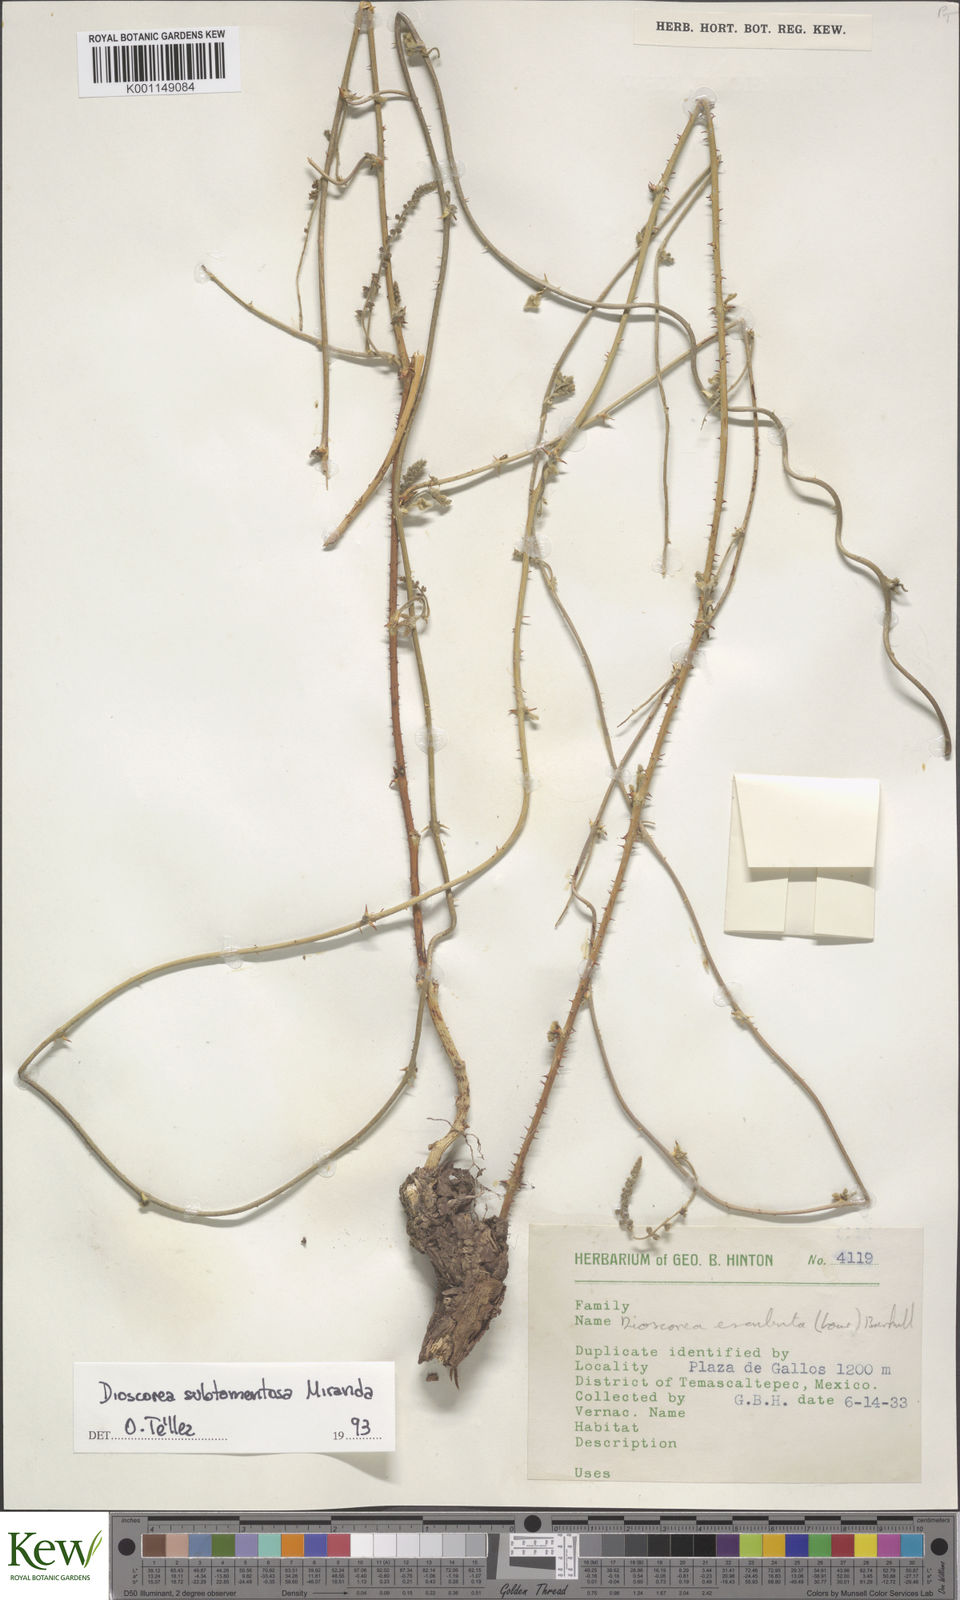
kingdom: Plantae
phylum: Tracheophyta
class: Liliopsida
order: Dioscoreales
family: Dioscoreaceae
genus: Dioscorea
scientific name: Dioscorea subtomentosa
